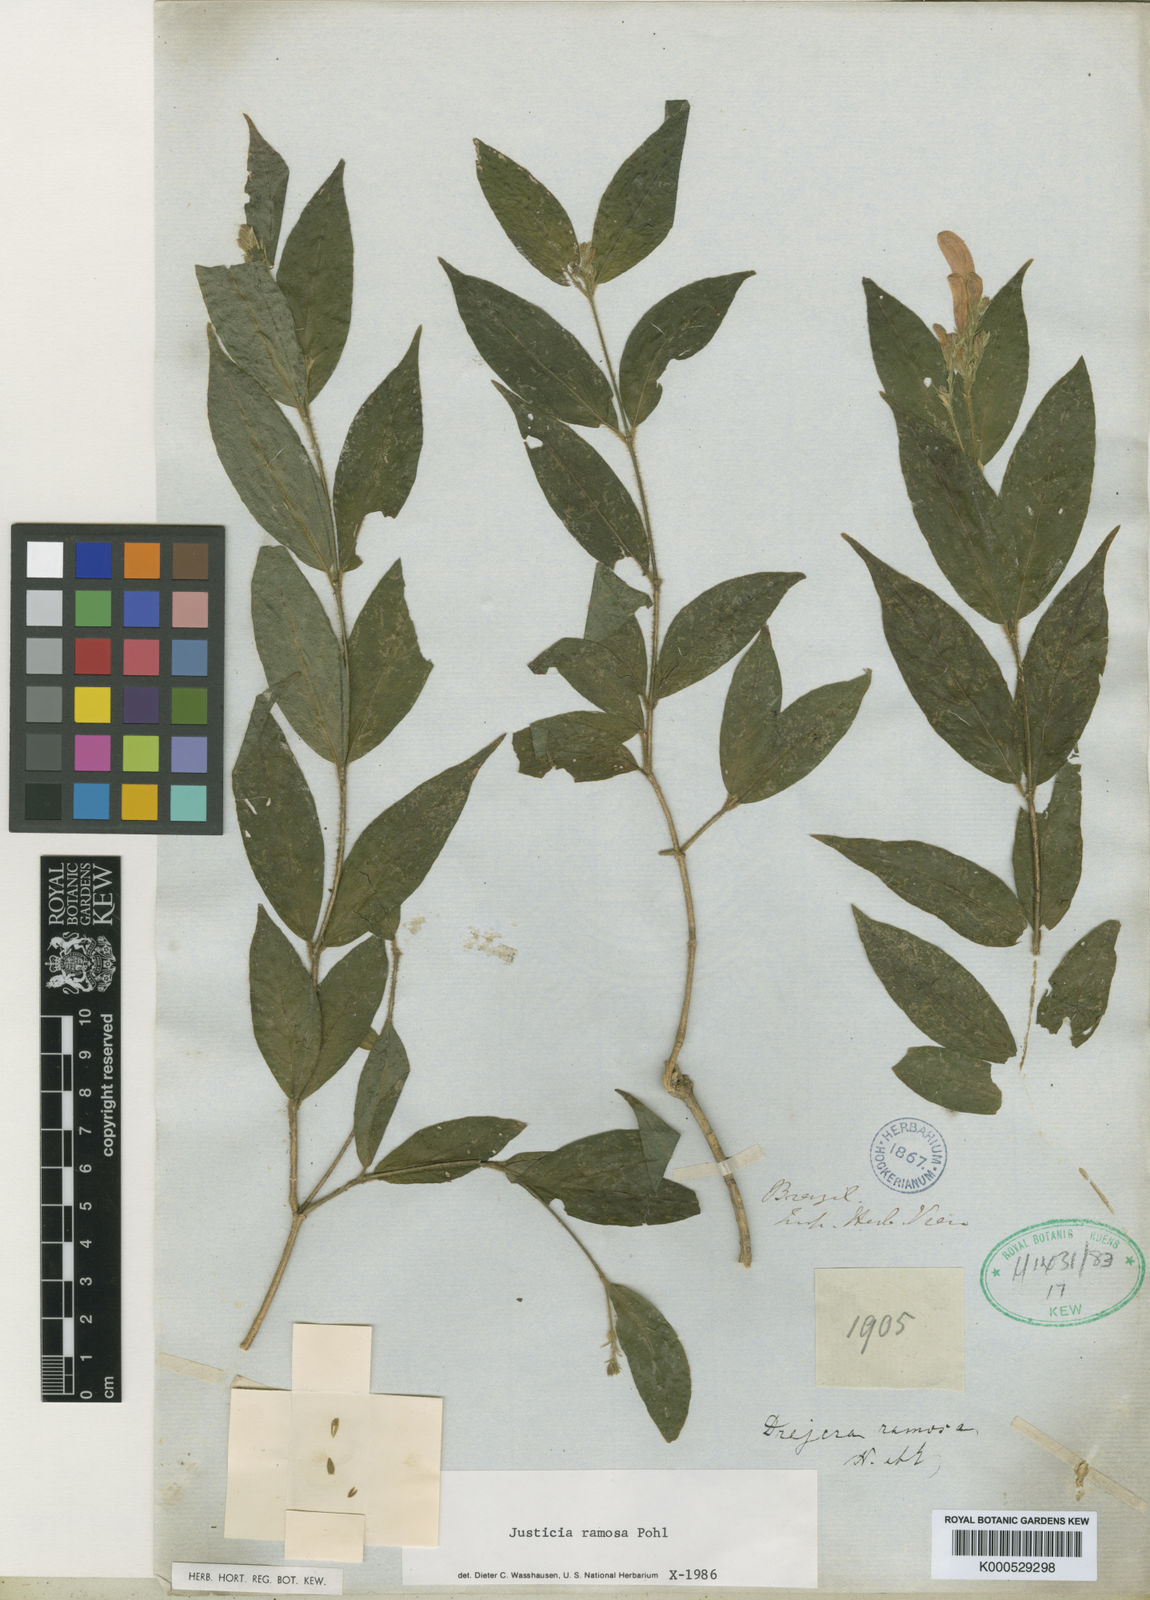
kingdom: Plantae
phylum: Tracheophyta
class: Magnoliopsida
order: Lamiales
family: Acanthaceae
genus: Thyrsacanthus
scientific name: Thyrsacanthus
